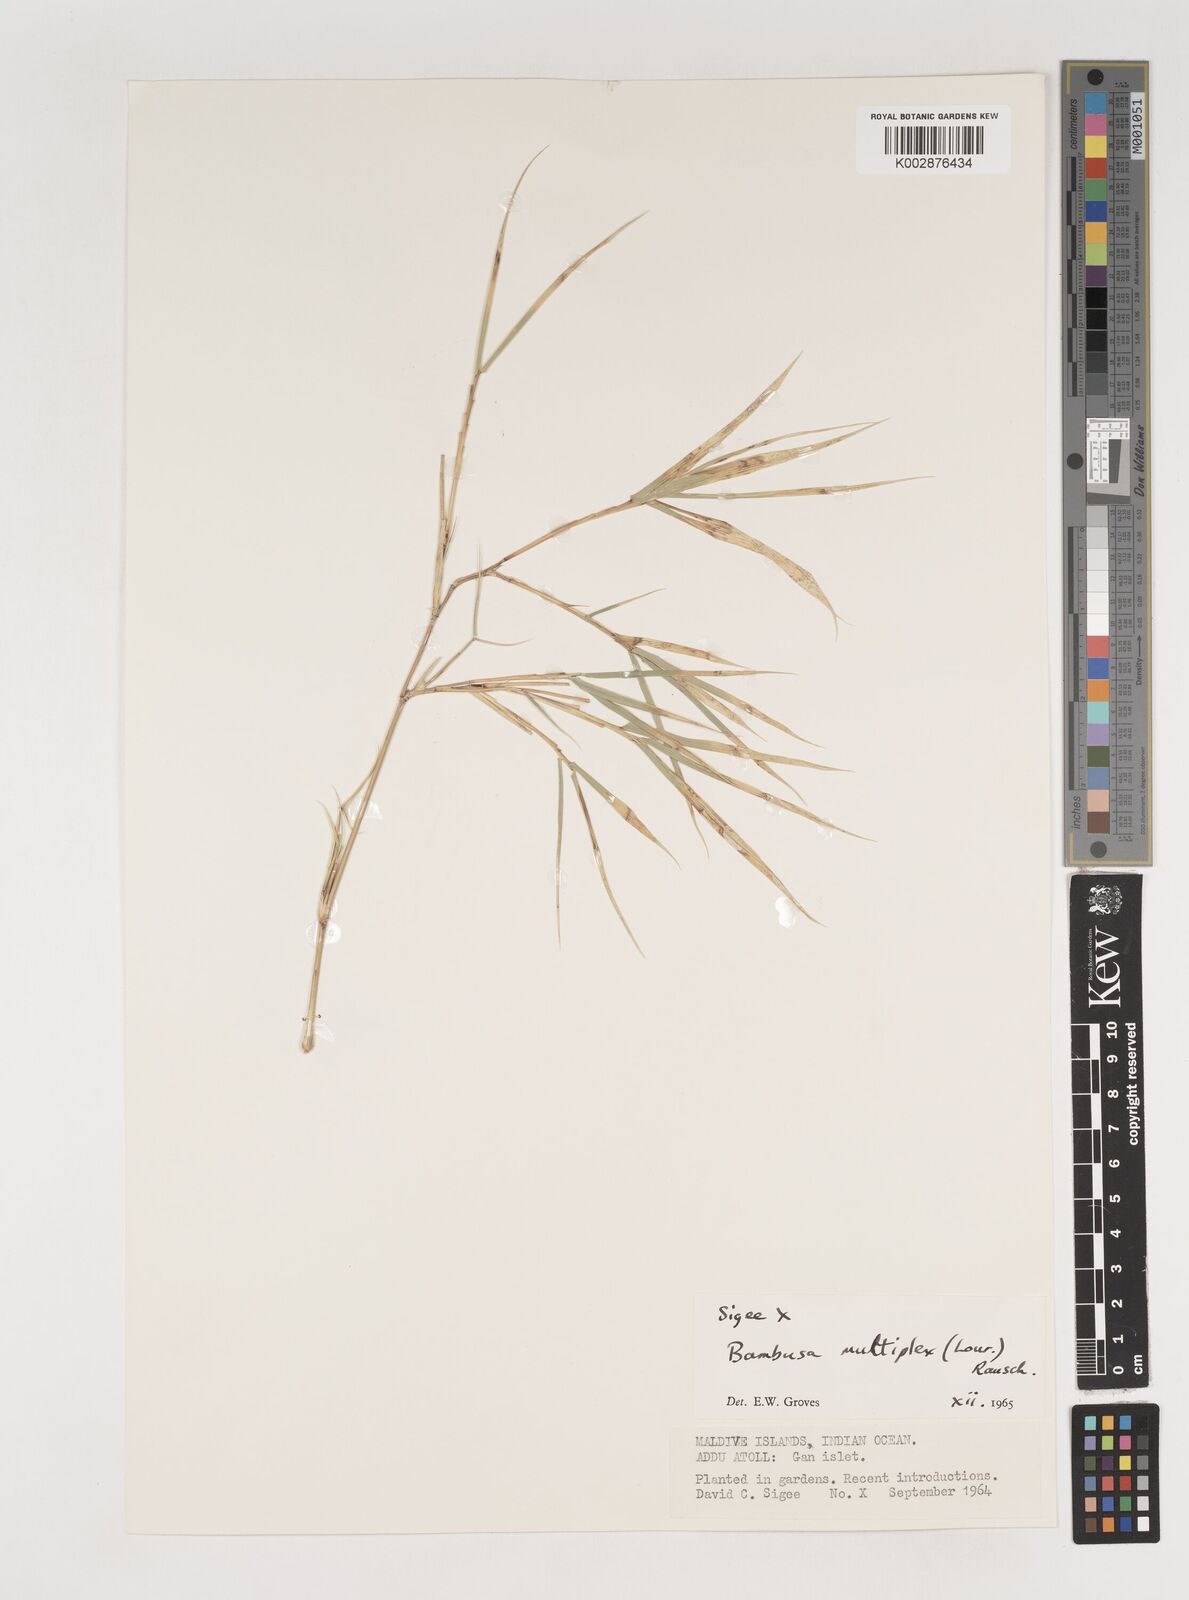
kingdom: Plantae
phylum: Tracheophyta
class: Liliopsida
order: Poales
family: Poaceae
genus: Bambusa
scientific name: Bambusa multiplex
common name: Hedge bamboo
